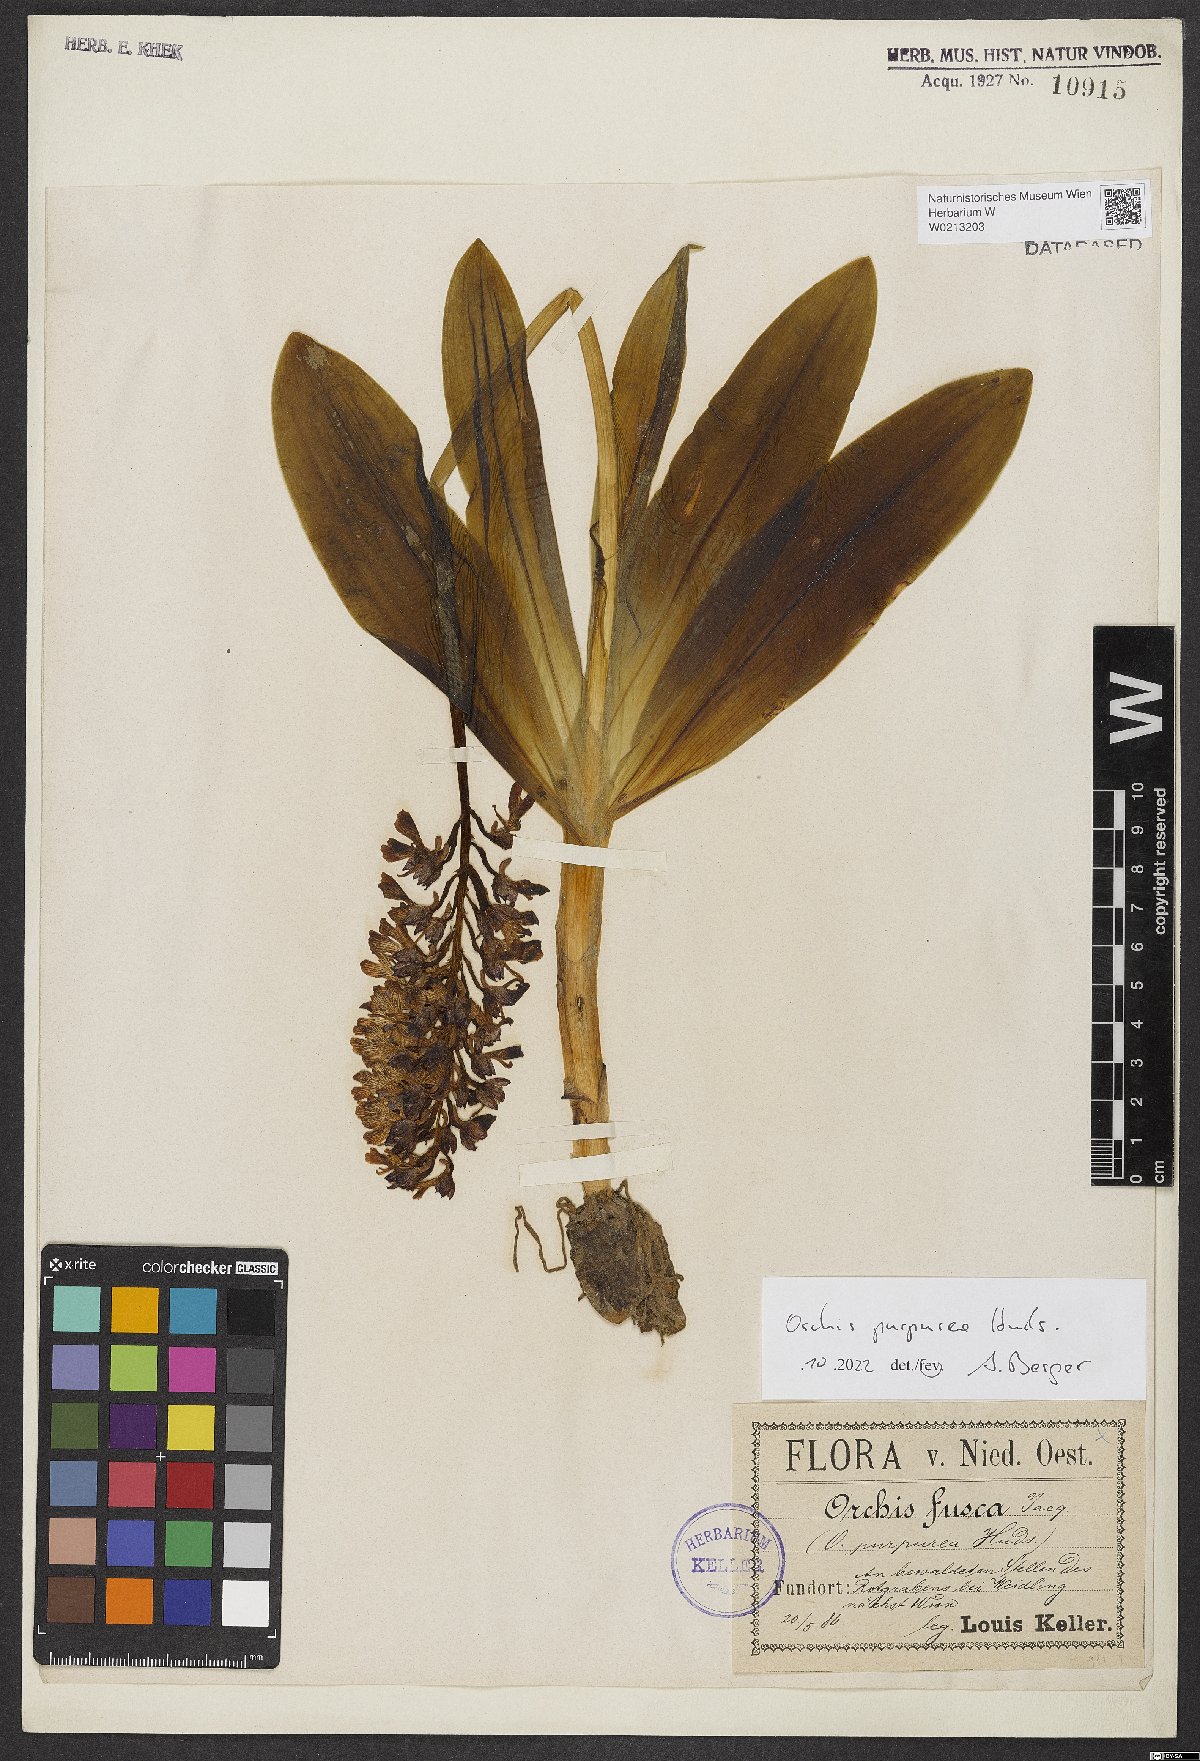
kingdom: Plantae
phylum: Tracheophyta
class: Liliopsida
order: Asparagales
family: Orchidaceae
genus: Orchis
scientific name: Orchis purpurea
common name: Lady orchid
